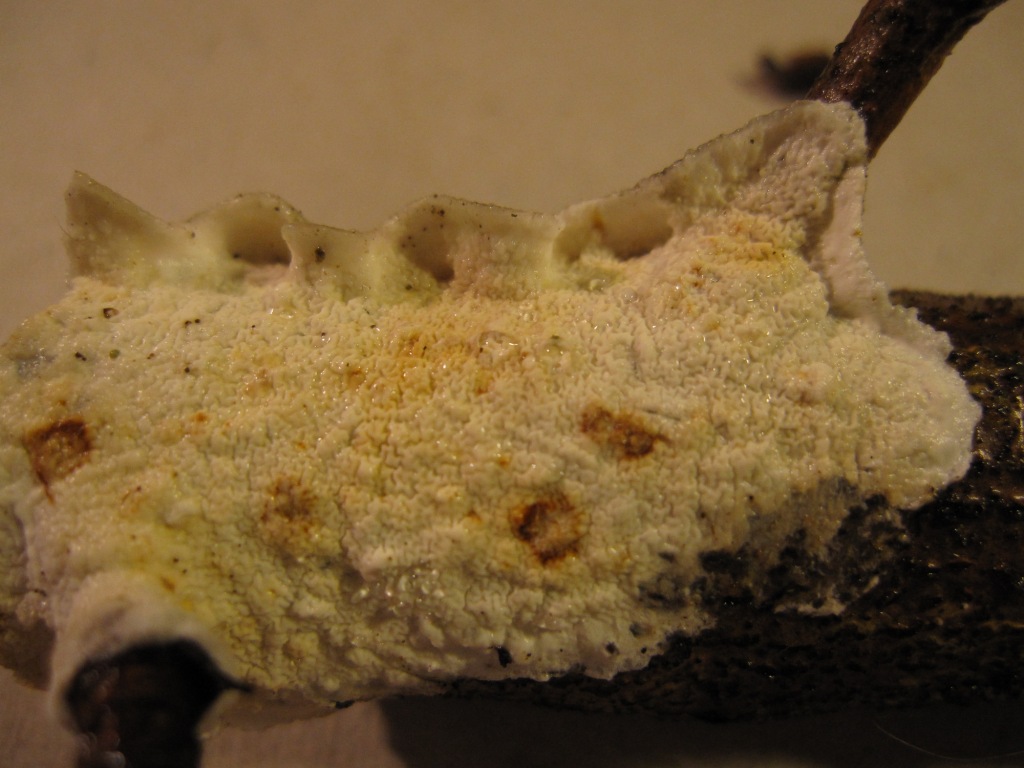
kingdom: Fungi
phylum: Basidiomycota
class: Agaricomycetes
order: Polyporales
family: Irpicaceae
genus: Byssomerulius
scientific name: Byssomerulius corium
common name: læder-åresvamp
